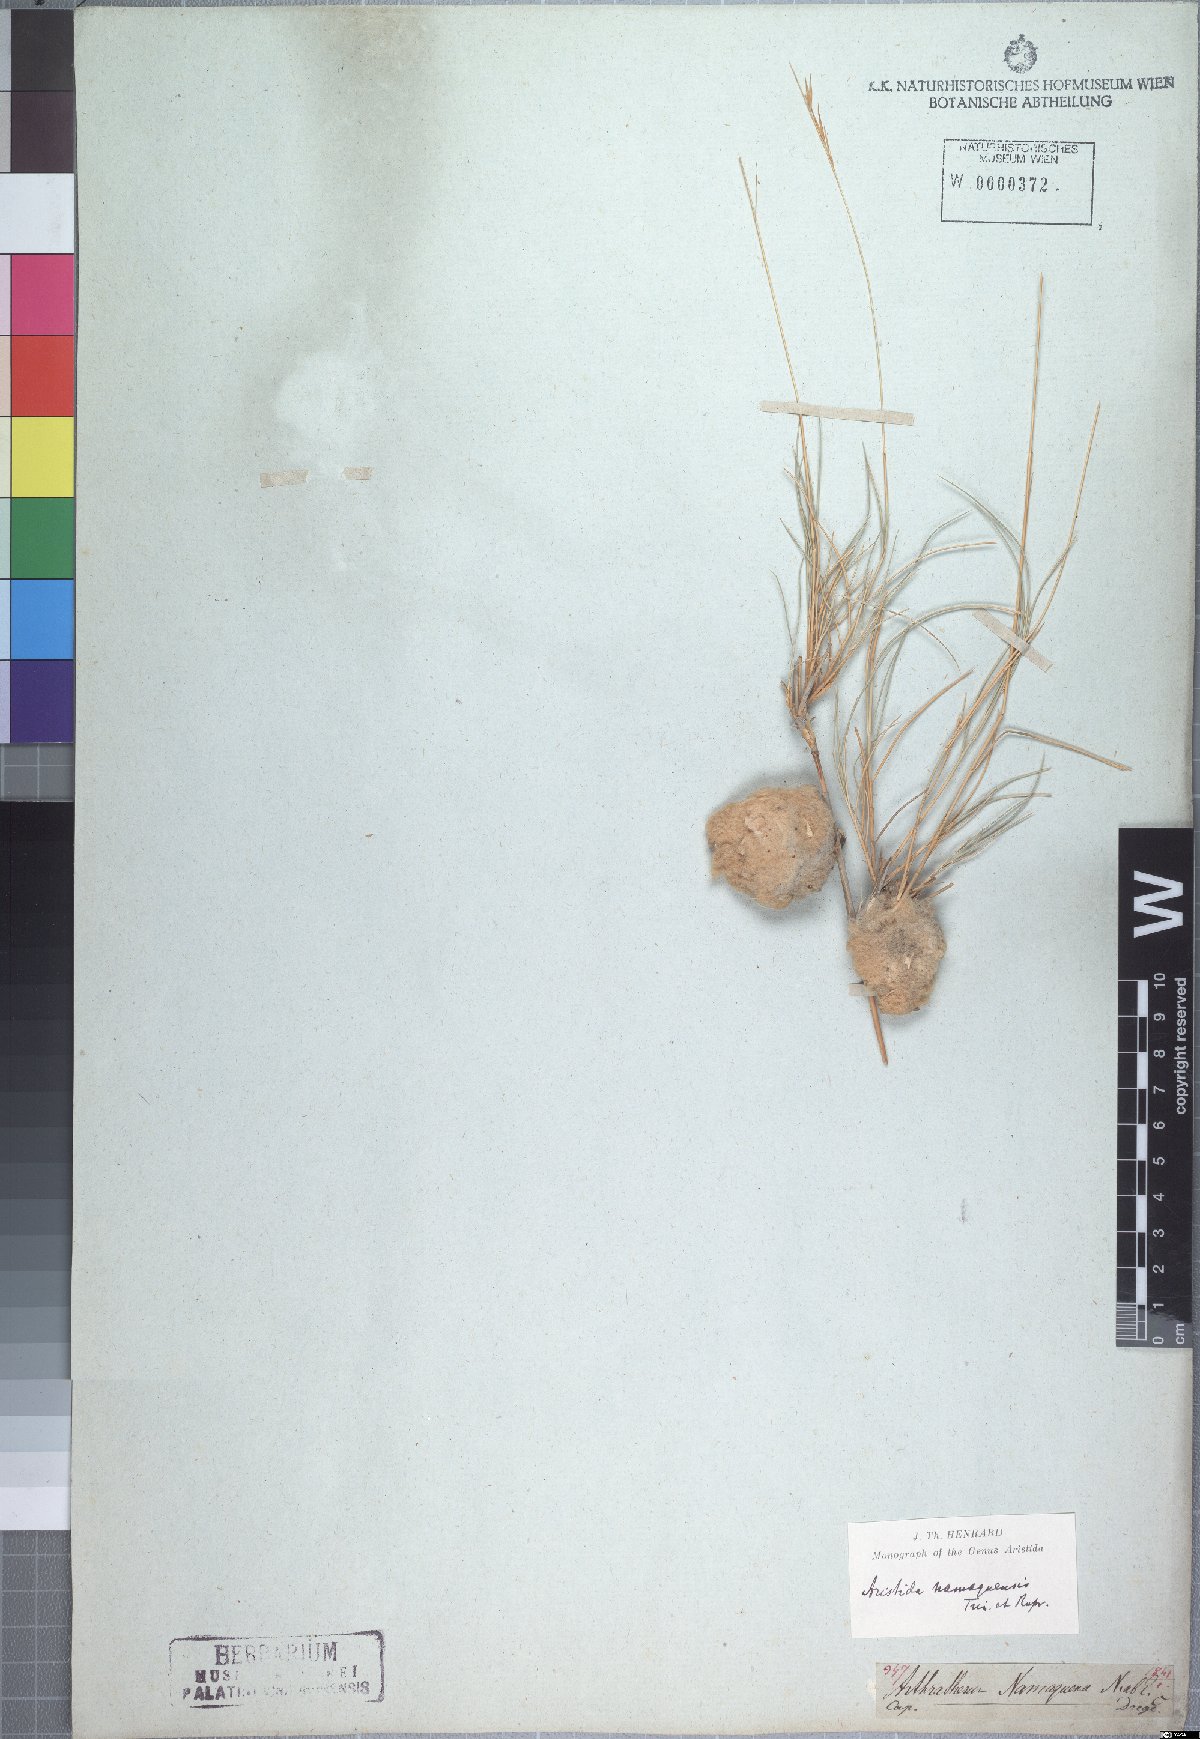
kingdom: Plantae
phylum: Tracheophyta
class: Liliopsida
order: Poales
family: Poaceae
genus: Stipagrostis
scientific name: Stipagrostis namaquensis
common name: River bushman grass
